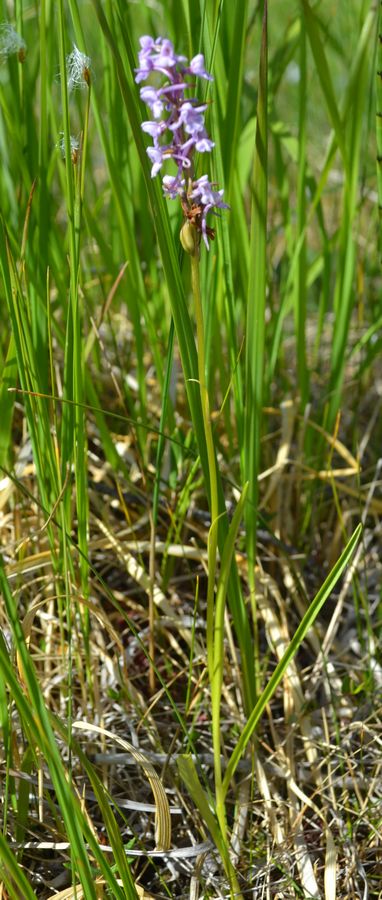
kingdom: Plantae
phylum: Tracheophyta
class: Liliopsida
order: Asparagales
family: Orchidaceae
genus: Dactylorhiza
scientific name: Dactylorhiza maculata
